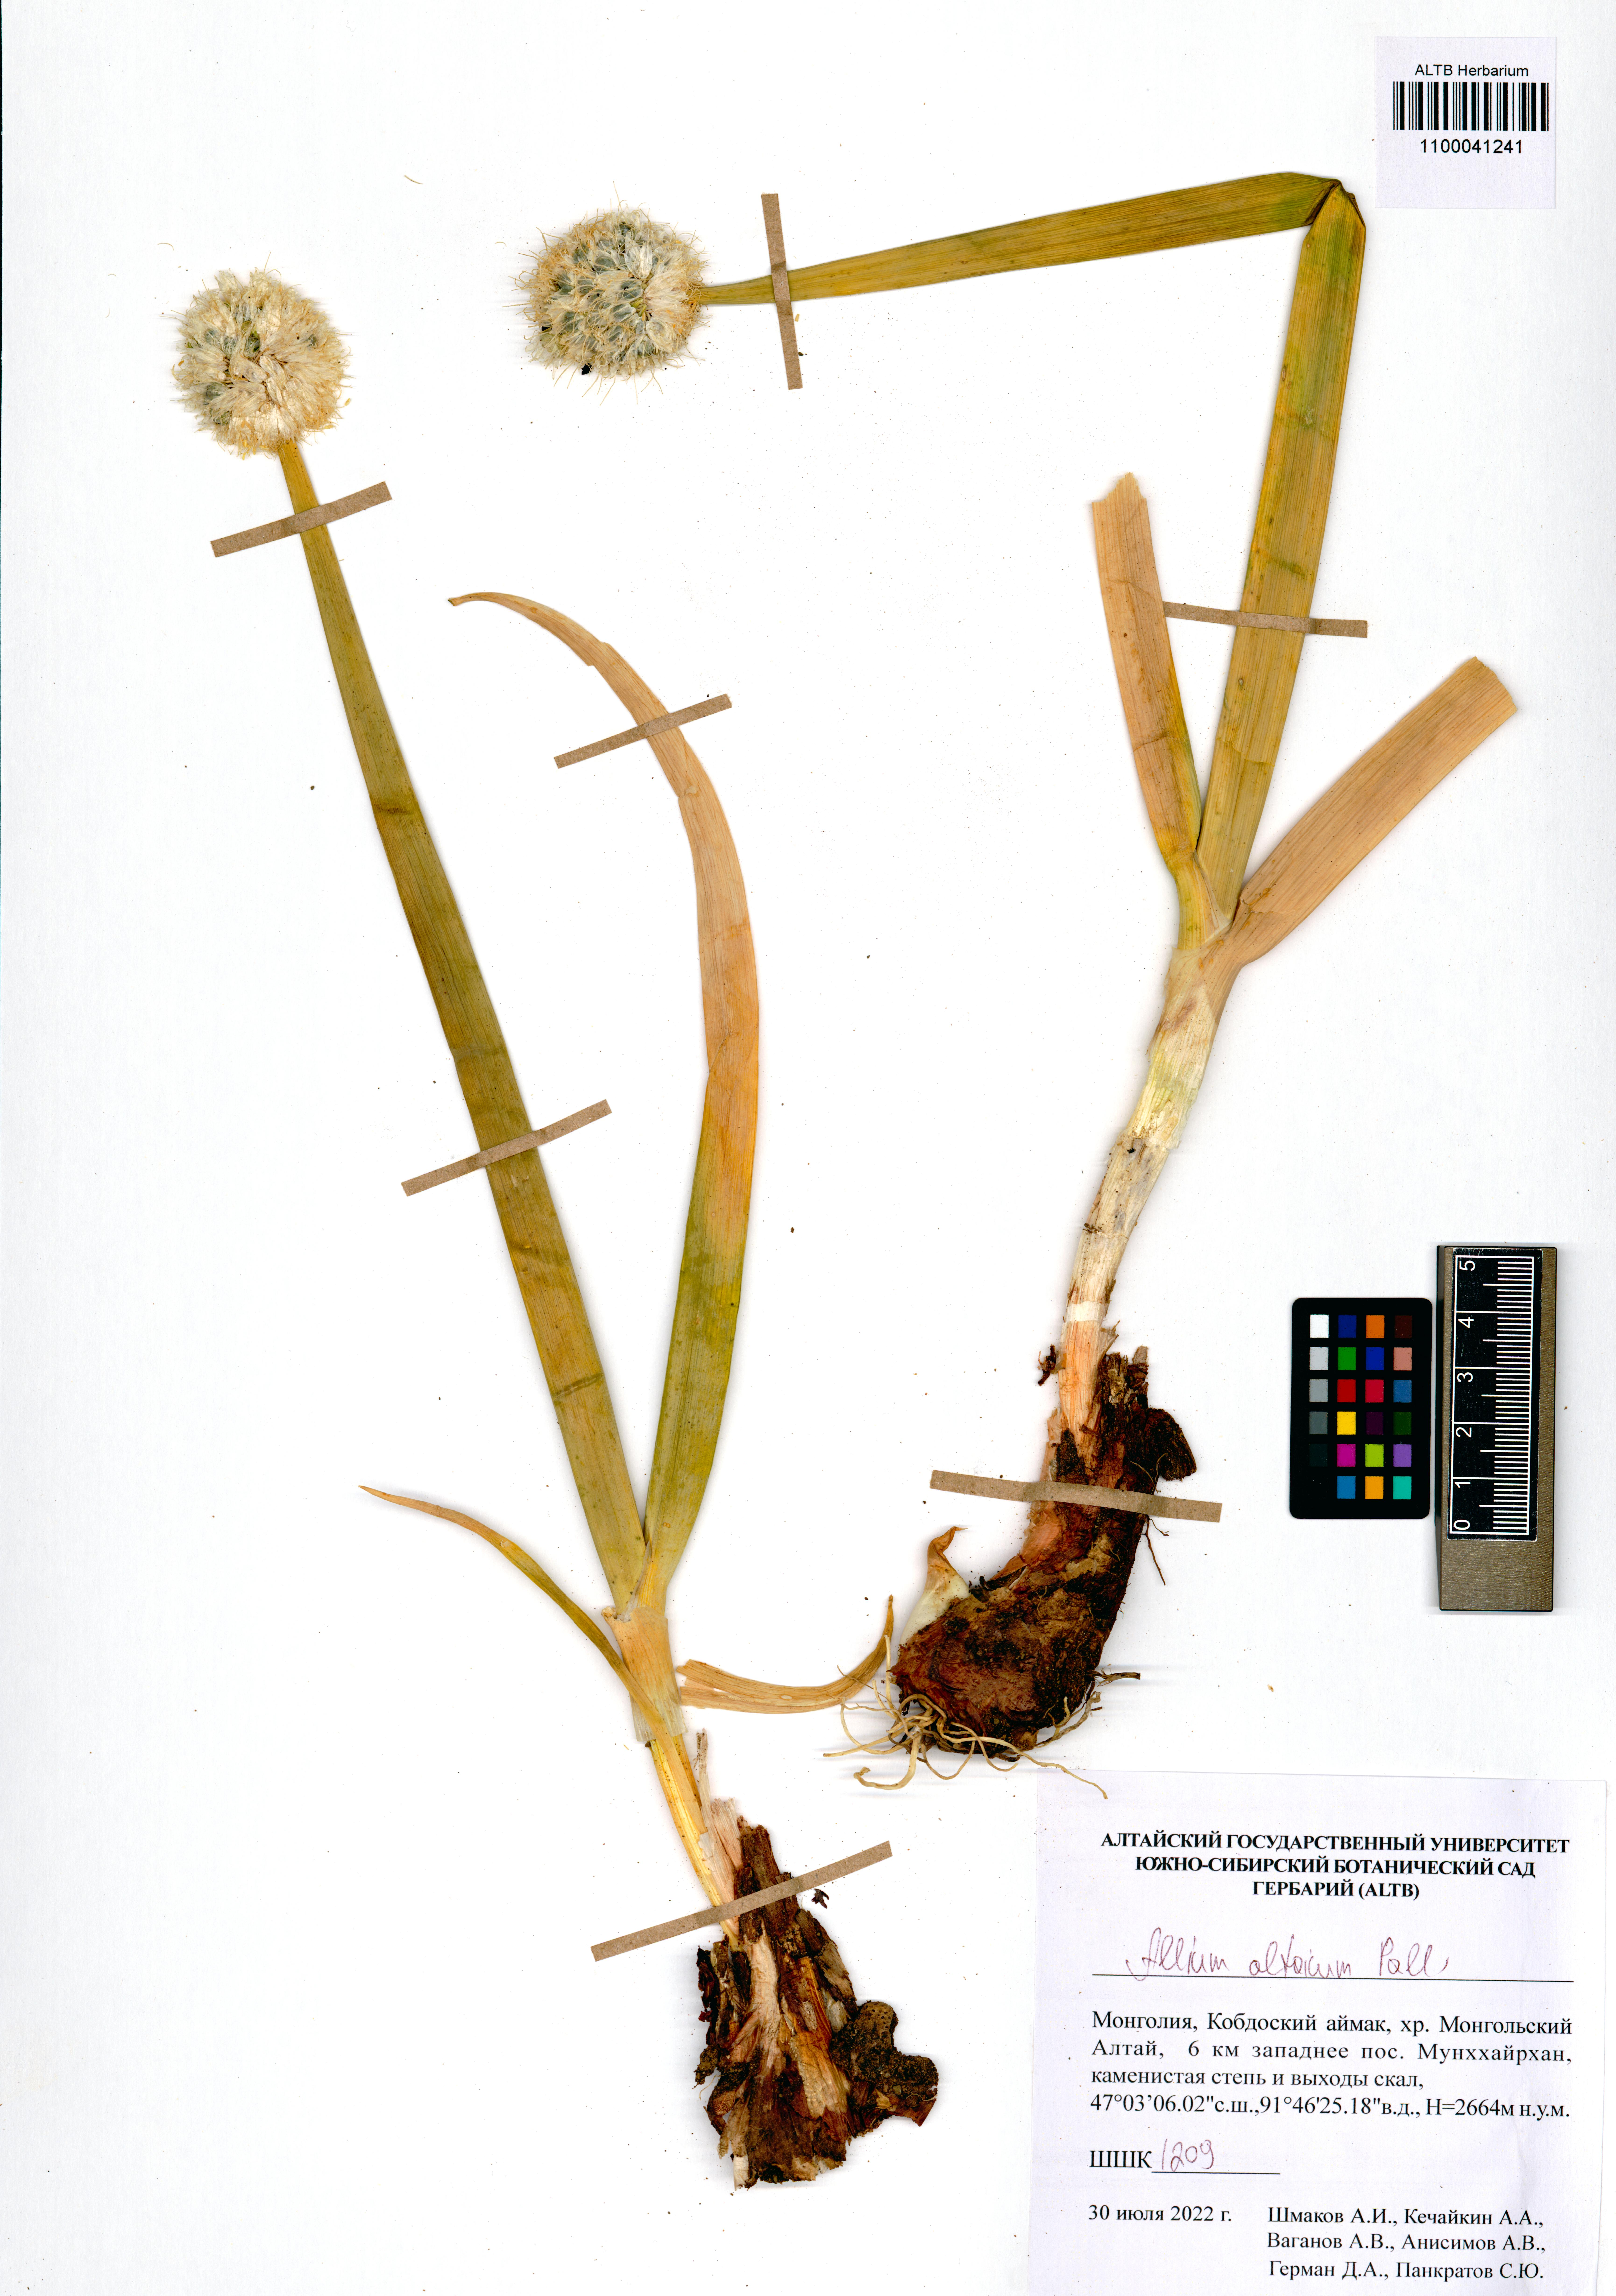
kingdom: Plantae
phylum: Tracheophyta
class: Liliopsida
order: Asparagales
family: Amaryllidaceae
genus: Allium
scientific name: Allium altaicum
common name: Altai onion
